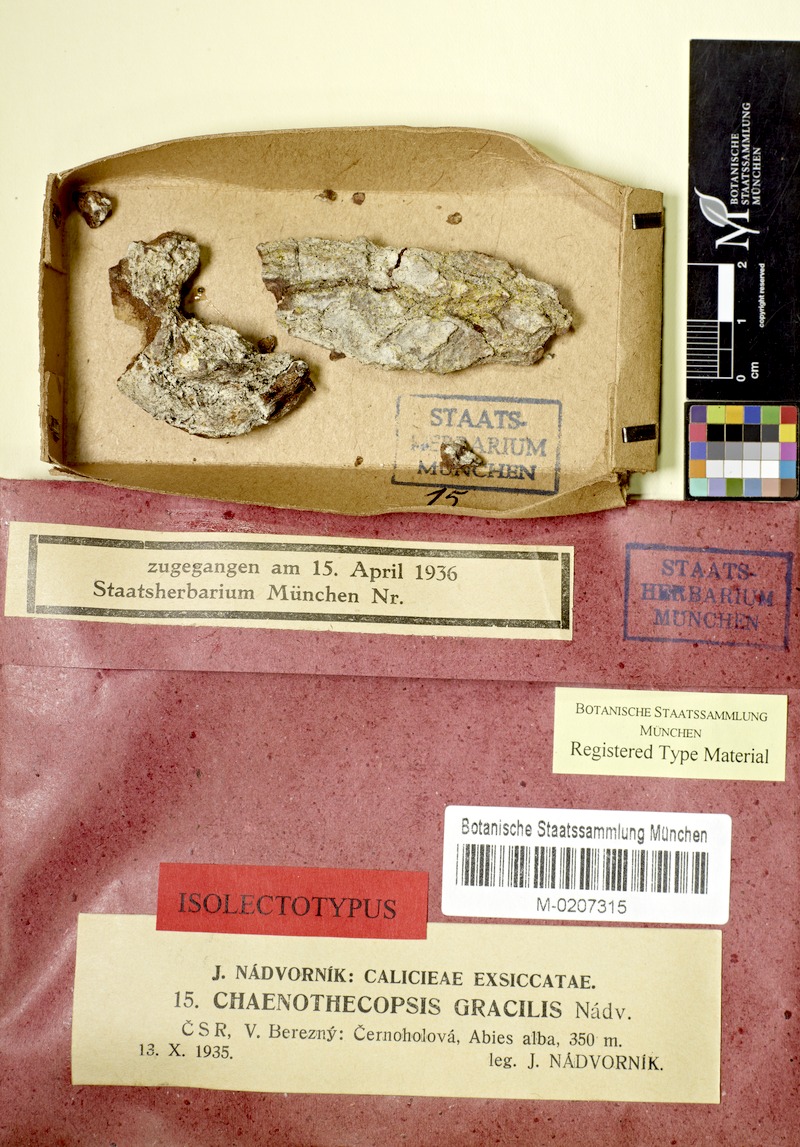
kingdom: Fungi
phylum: Ascomycota
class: Eurotiomycetes
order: Mycocaliciales
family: Mycocaliciaceae
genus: Chaenothecopsis
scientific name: Chaenothecopsis rubescens
